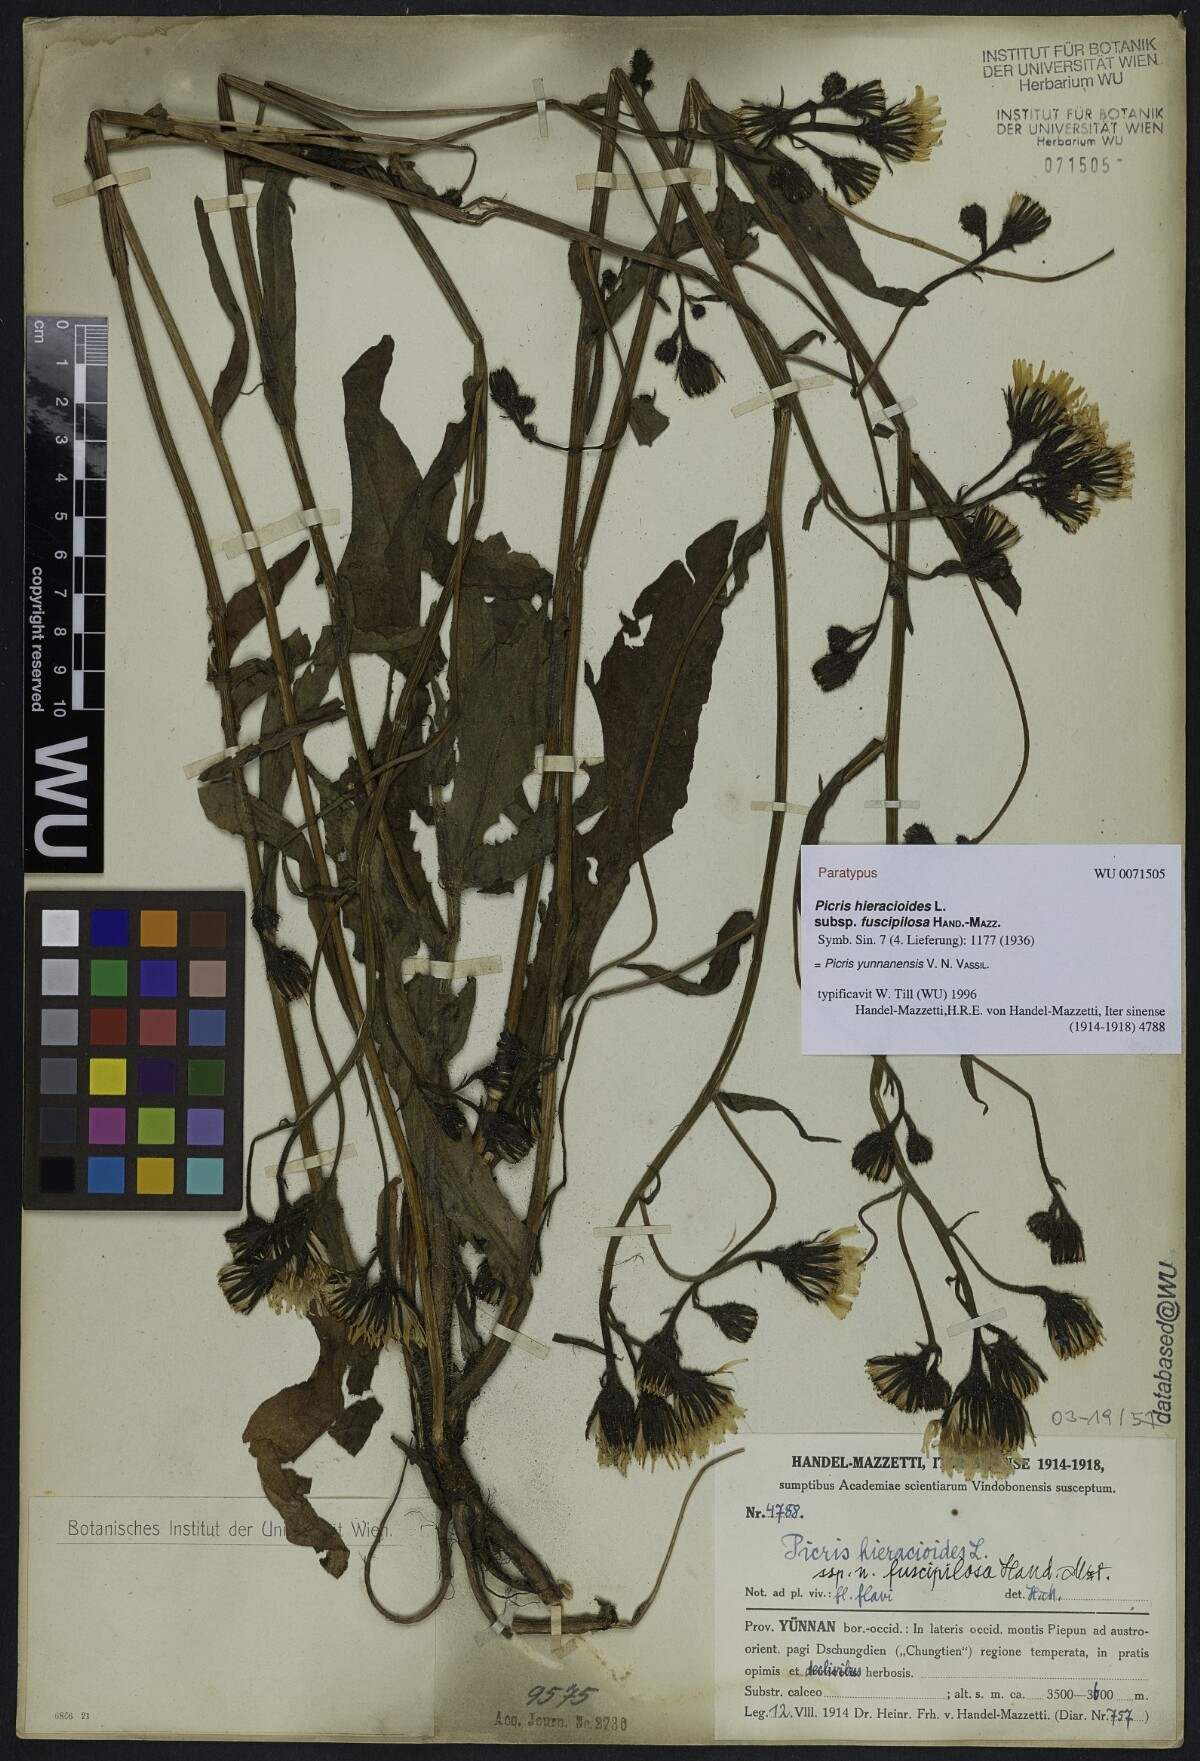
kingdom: Plantae
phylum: Tracheophyta
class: Magnoliopsida
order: Asterales
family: Asteraceae
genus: Picris
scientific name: Picris junnanensis
